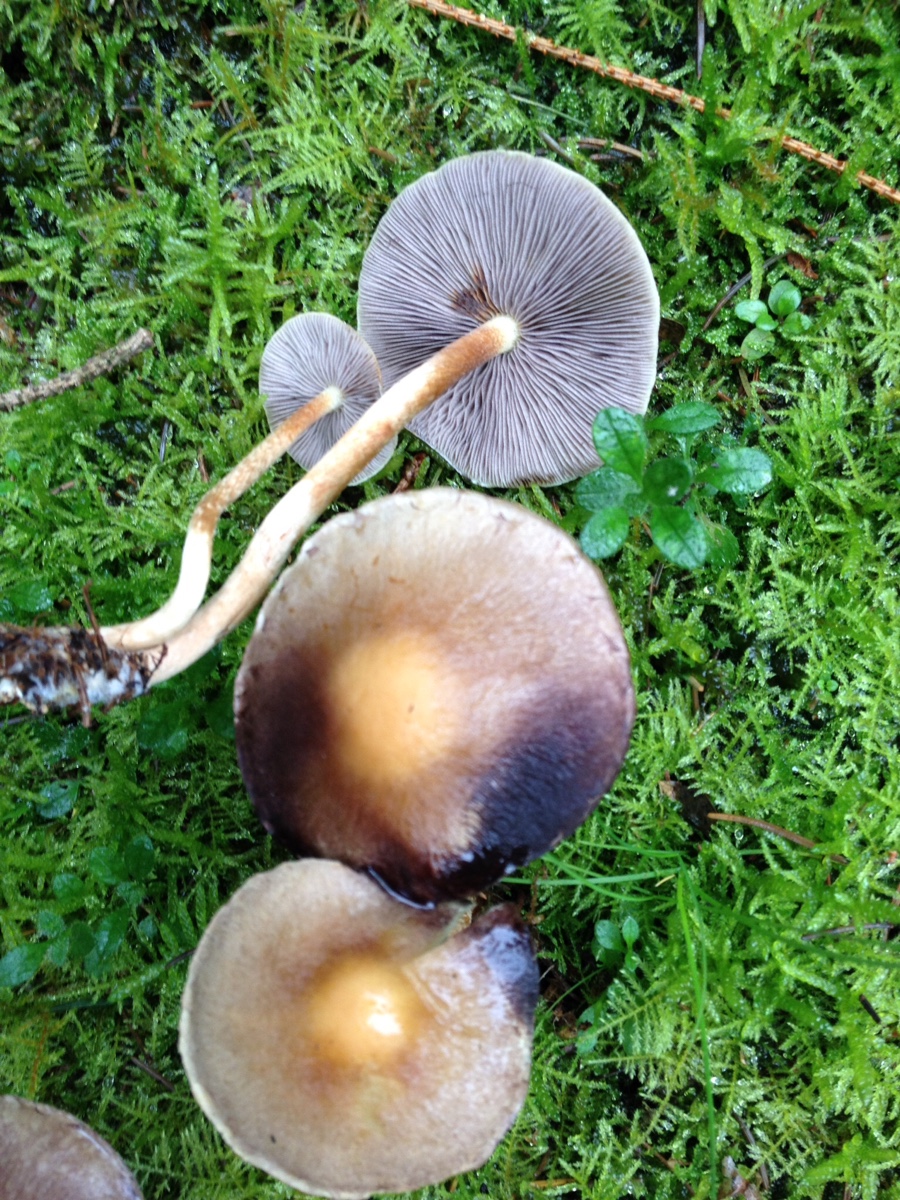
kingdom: Fungi
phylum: Basidiomycota
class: Agaricomycetes
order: Agaricales
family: Strophariaceae
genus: Hypholoma
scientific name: Hypholoma capnoides
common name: gran-svovlhat
